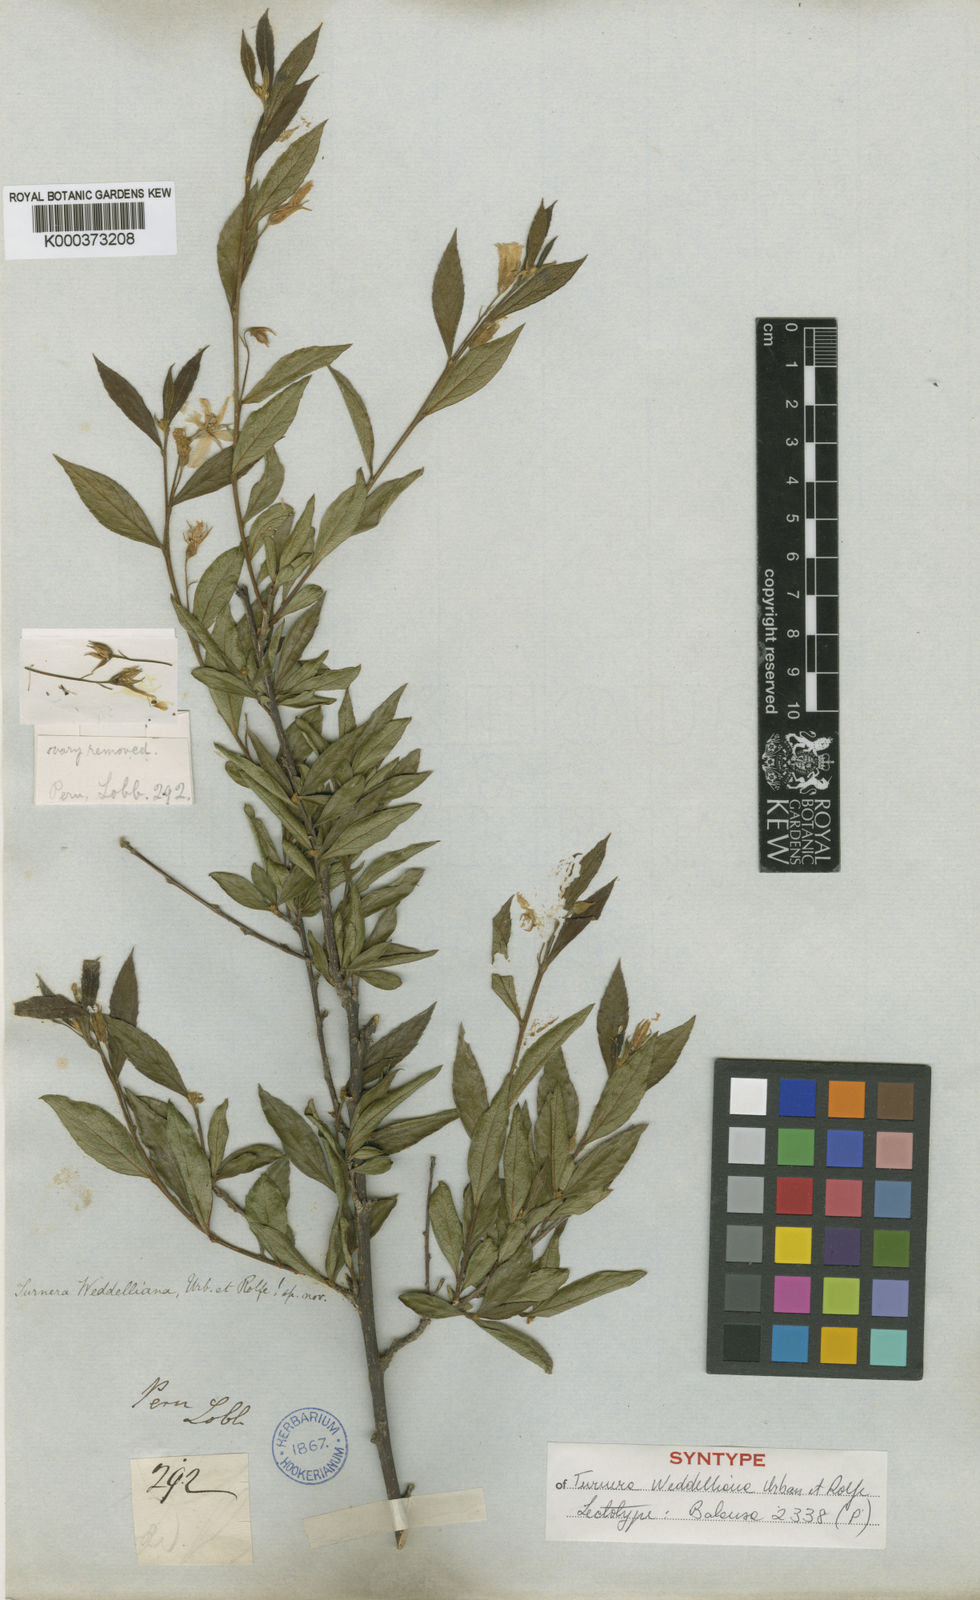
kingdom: Plantae
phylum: Tracheophyta
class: Magnoliopsida
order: Malpighiales
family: Turneraceae
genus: Turnera
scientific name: Turnera weddelliana
